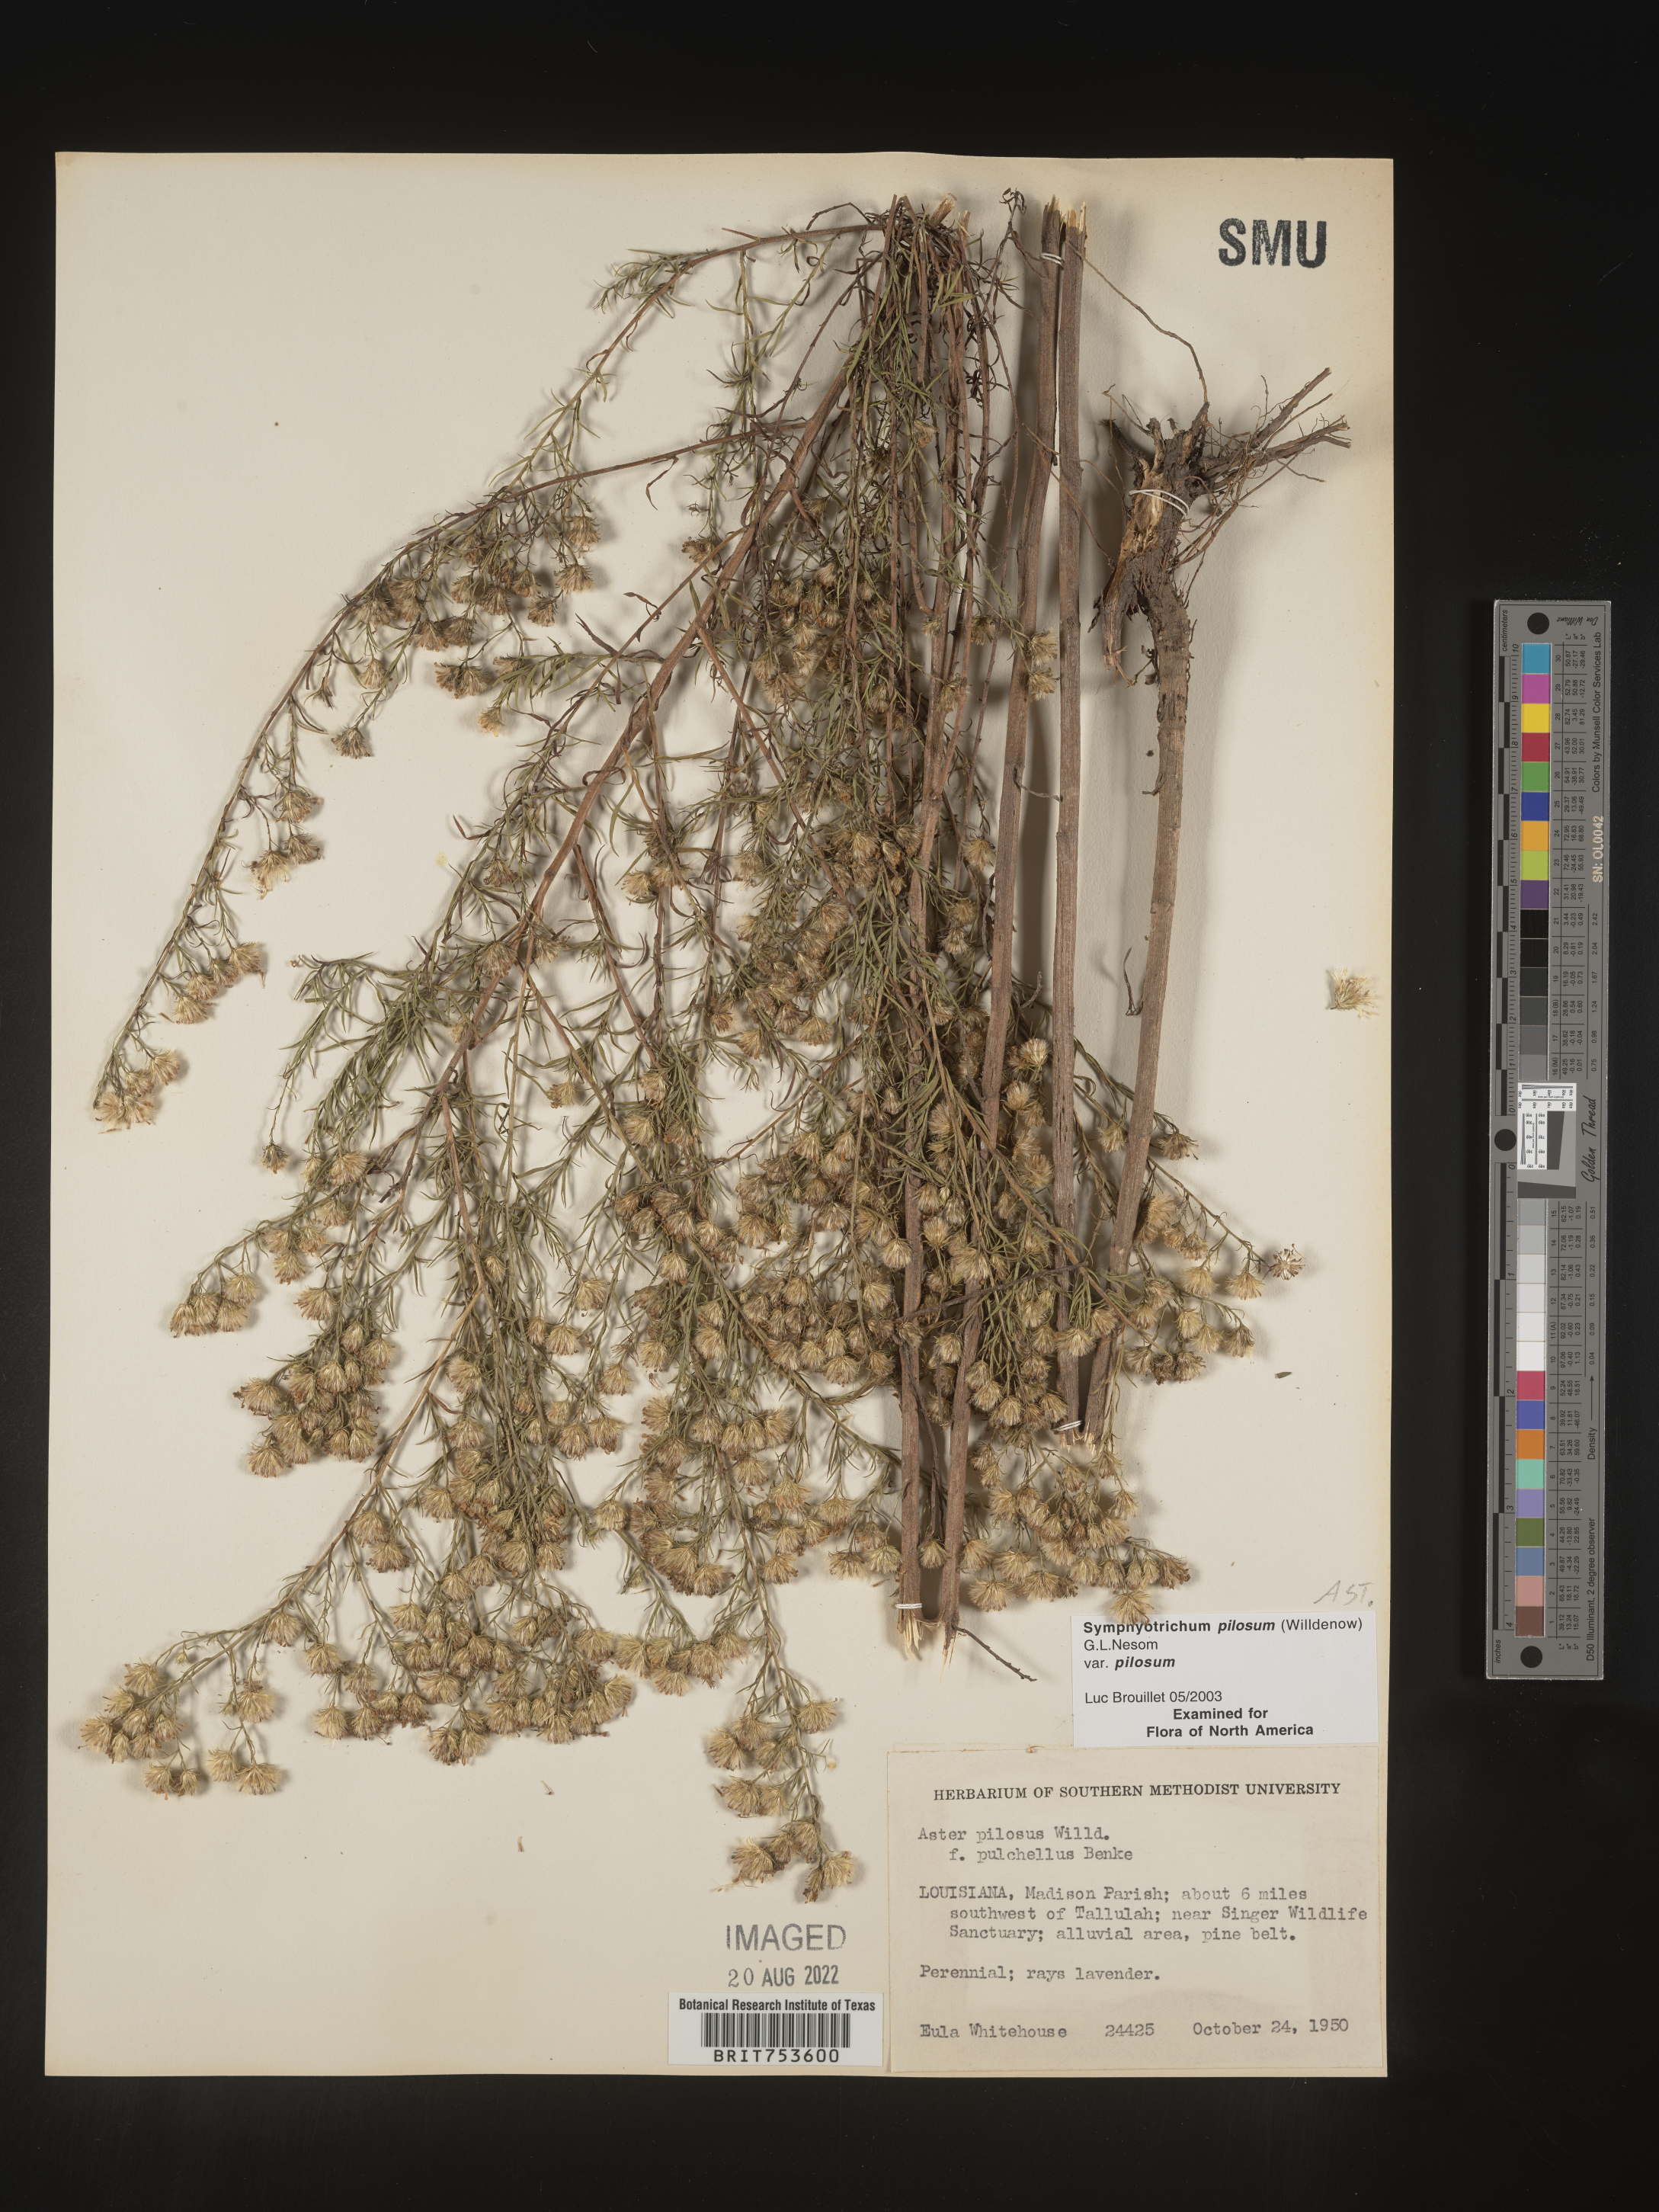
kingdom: Plantae
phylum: Tracheophyta
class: Magnoliopsida
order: Asterales
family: Asteraceae
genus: Symphyotrichum
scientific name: Symphyotrichum pilosum
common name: Awl aster
